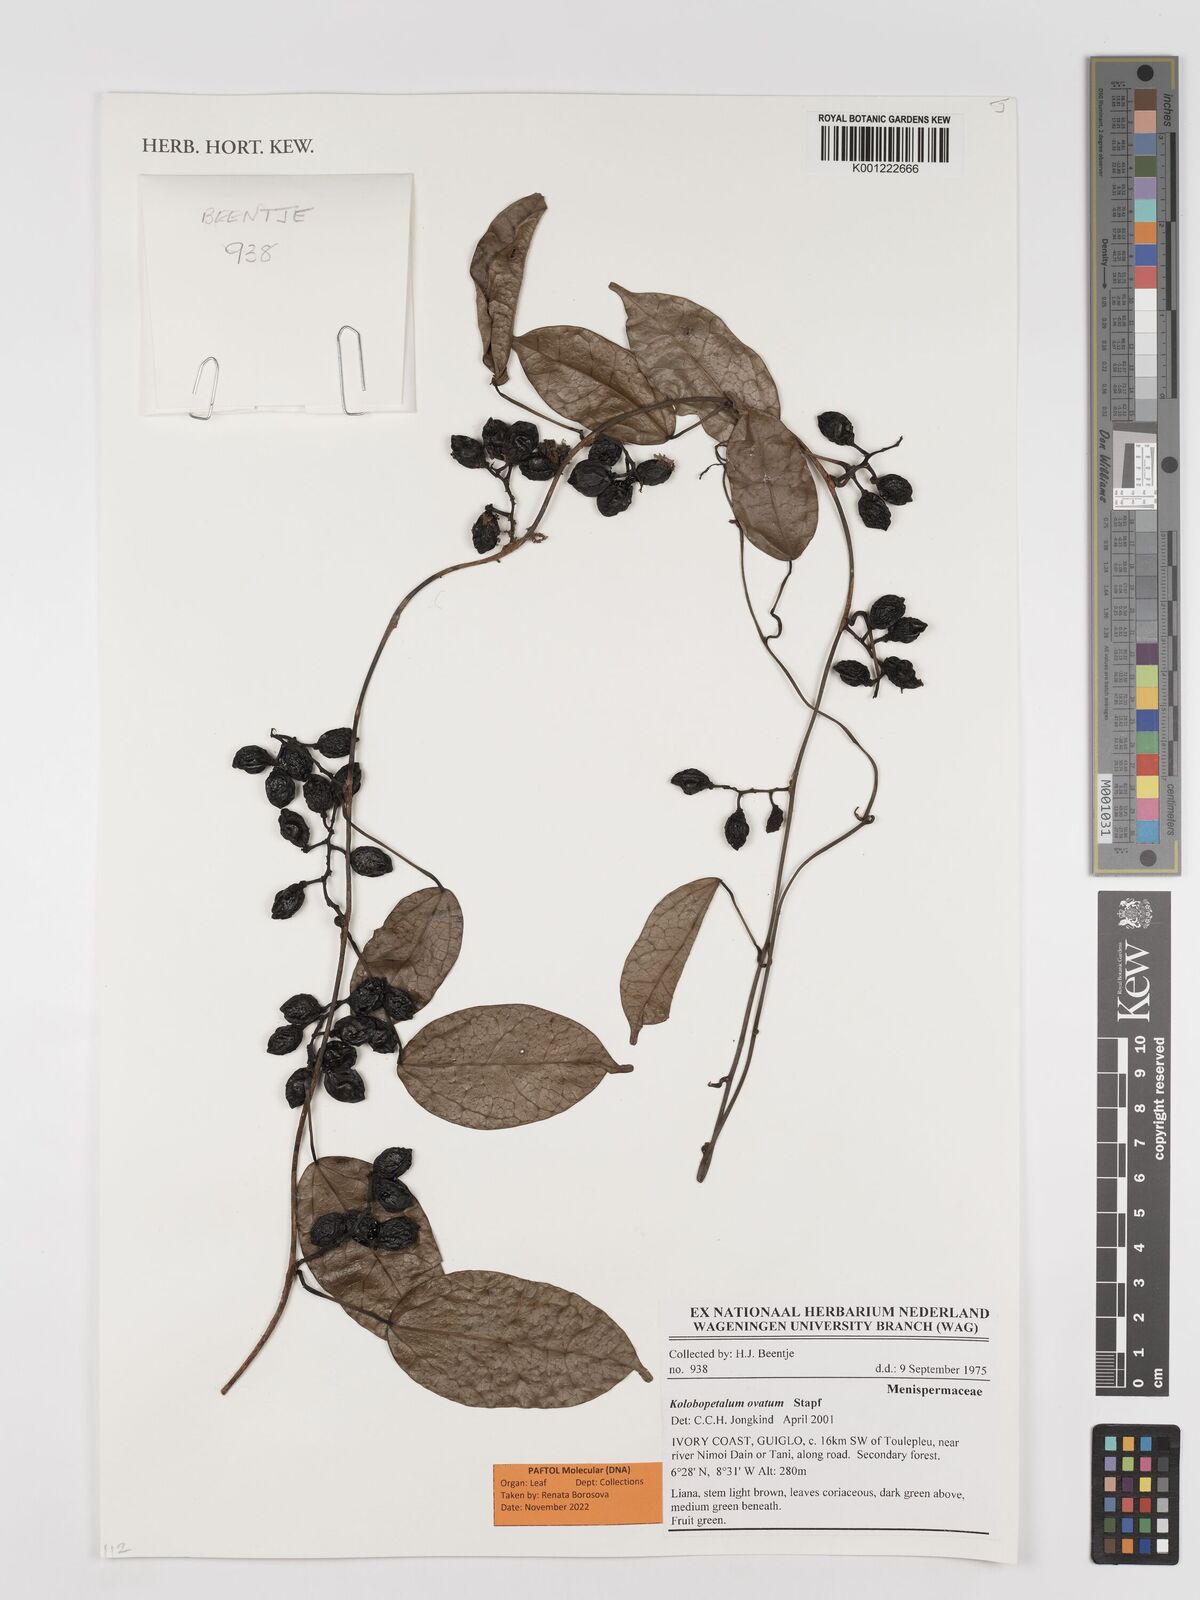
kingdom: Plantae
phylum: Tracheophyta
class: Magnoliopsida
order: Ranunculales
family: Menispermaceae
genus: Kolobopetalum
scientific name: Kolobopetalum ovatum
